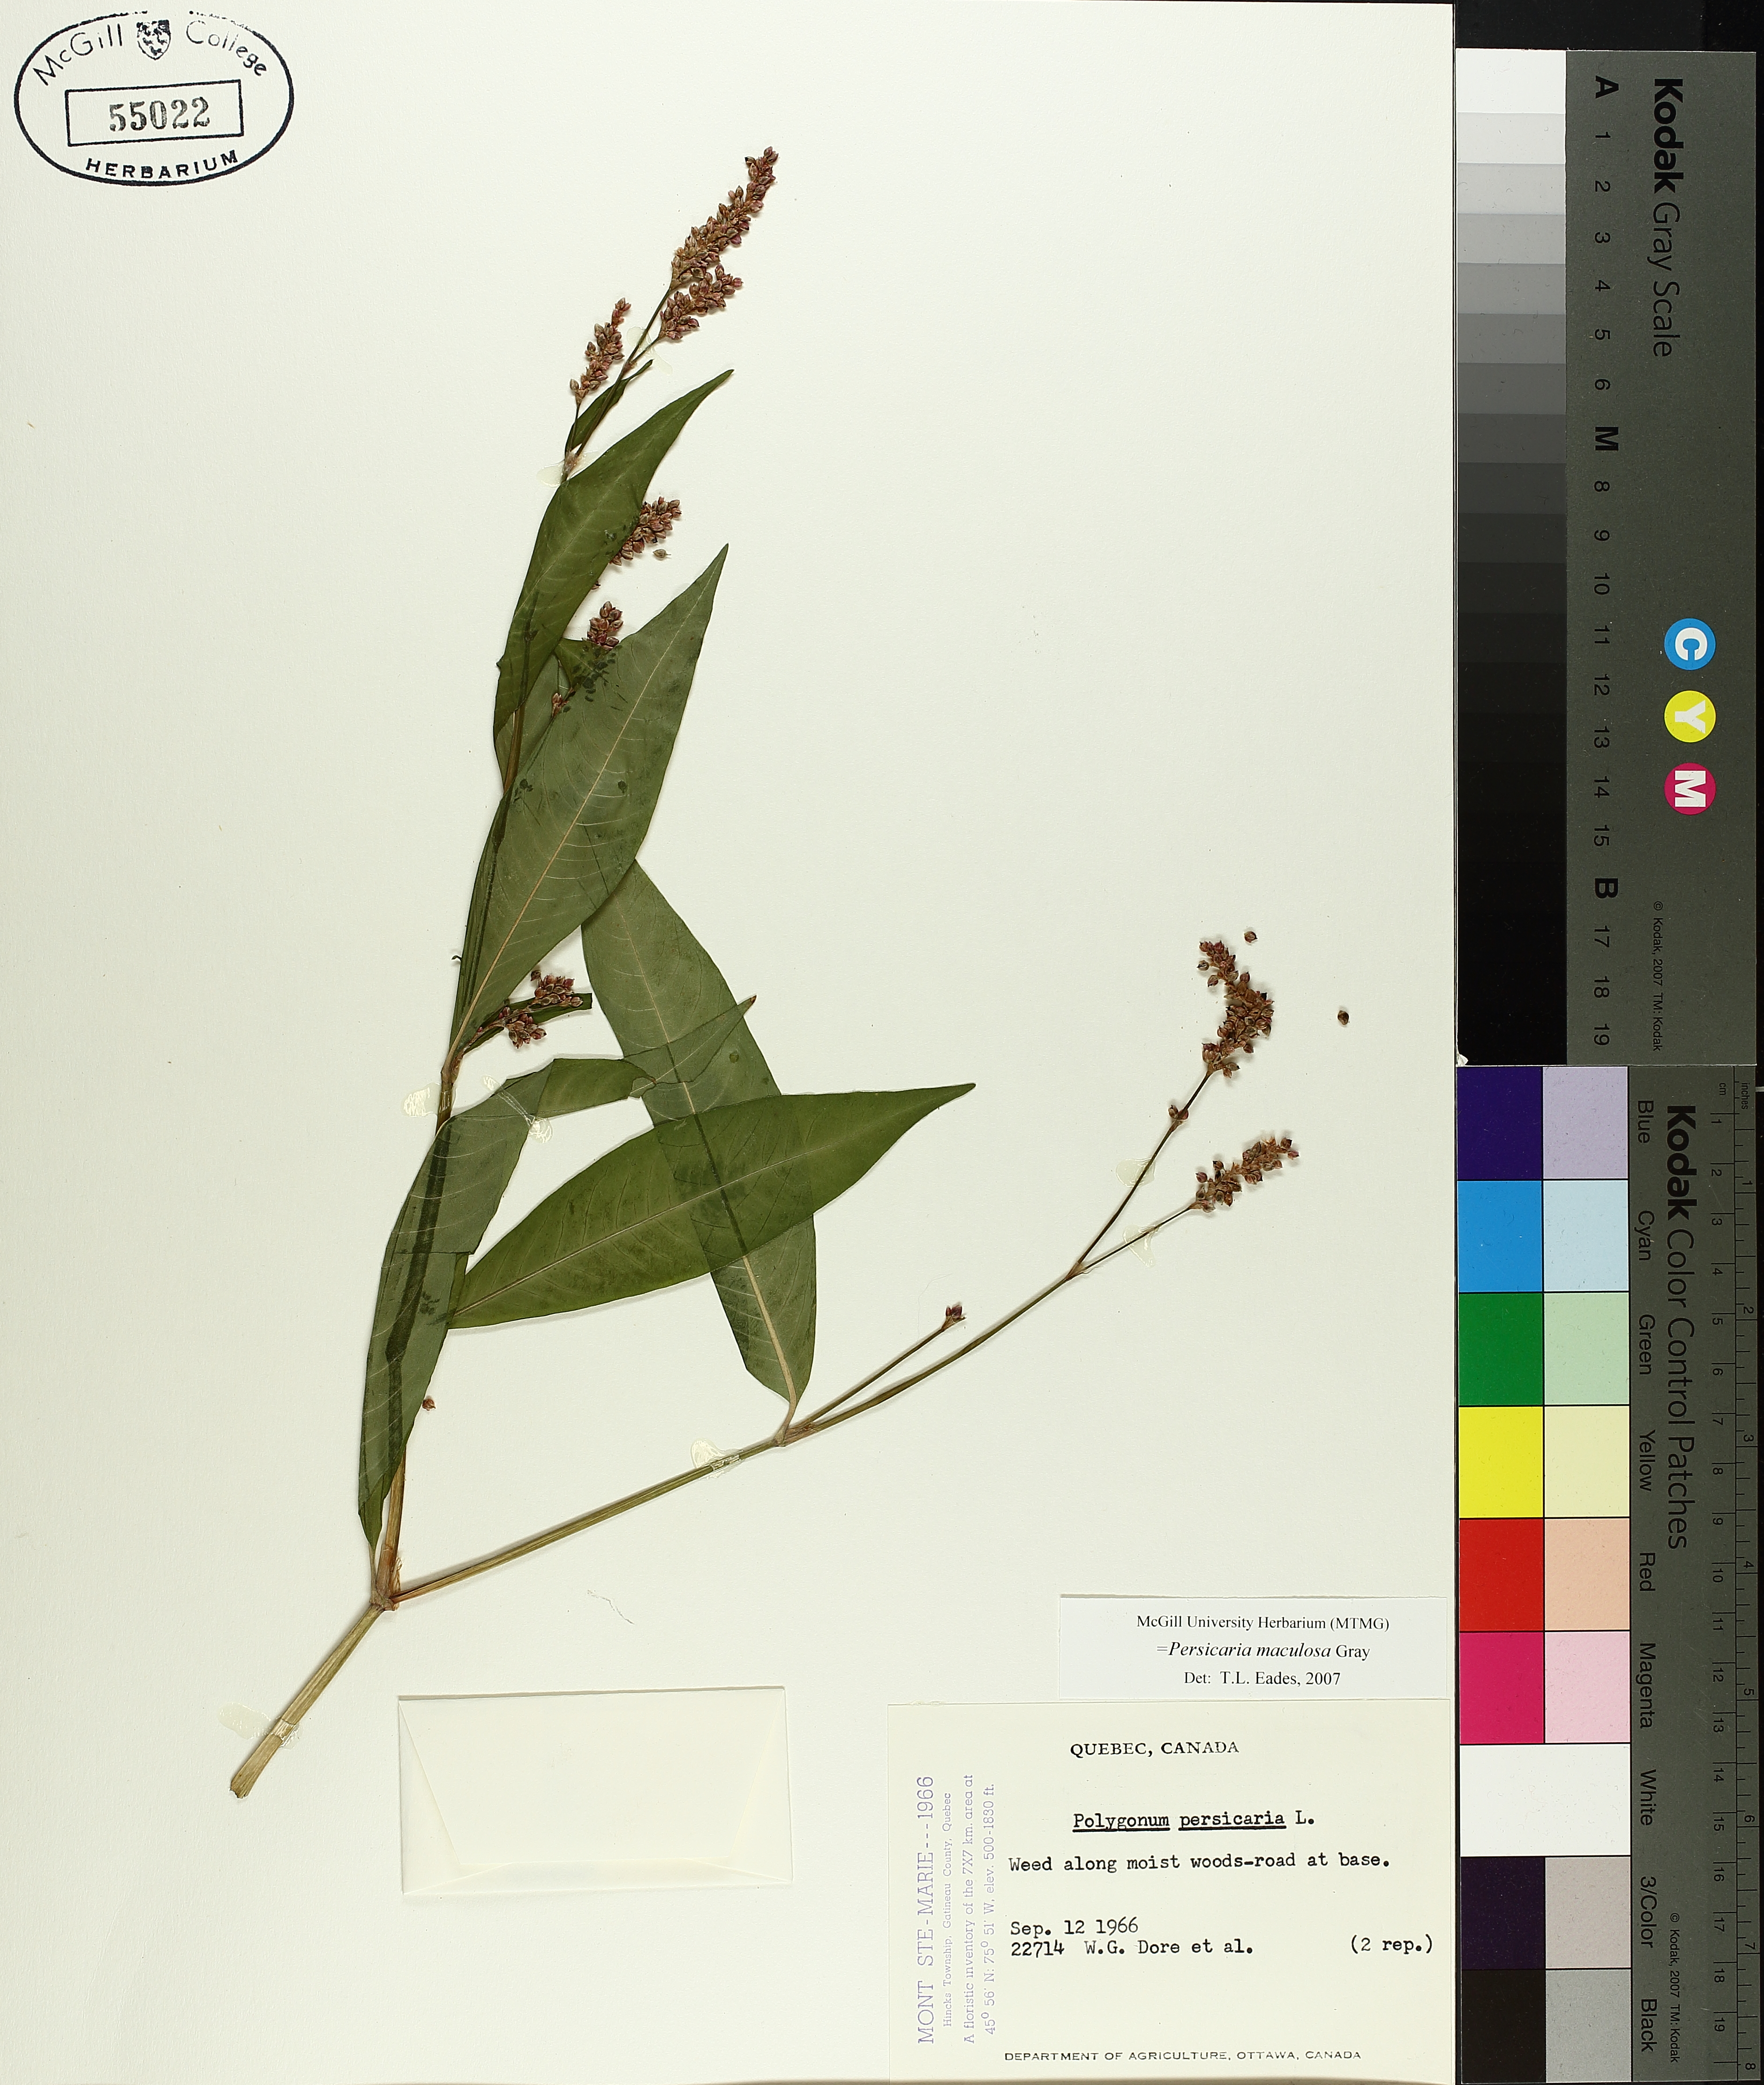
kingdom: Plantae
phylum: Tracheophyta
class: Magnoliopsida
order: Caryophyllales
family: Polygonaceae
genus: Persicaria
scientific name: Persicaria maculosa
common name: Redshank
